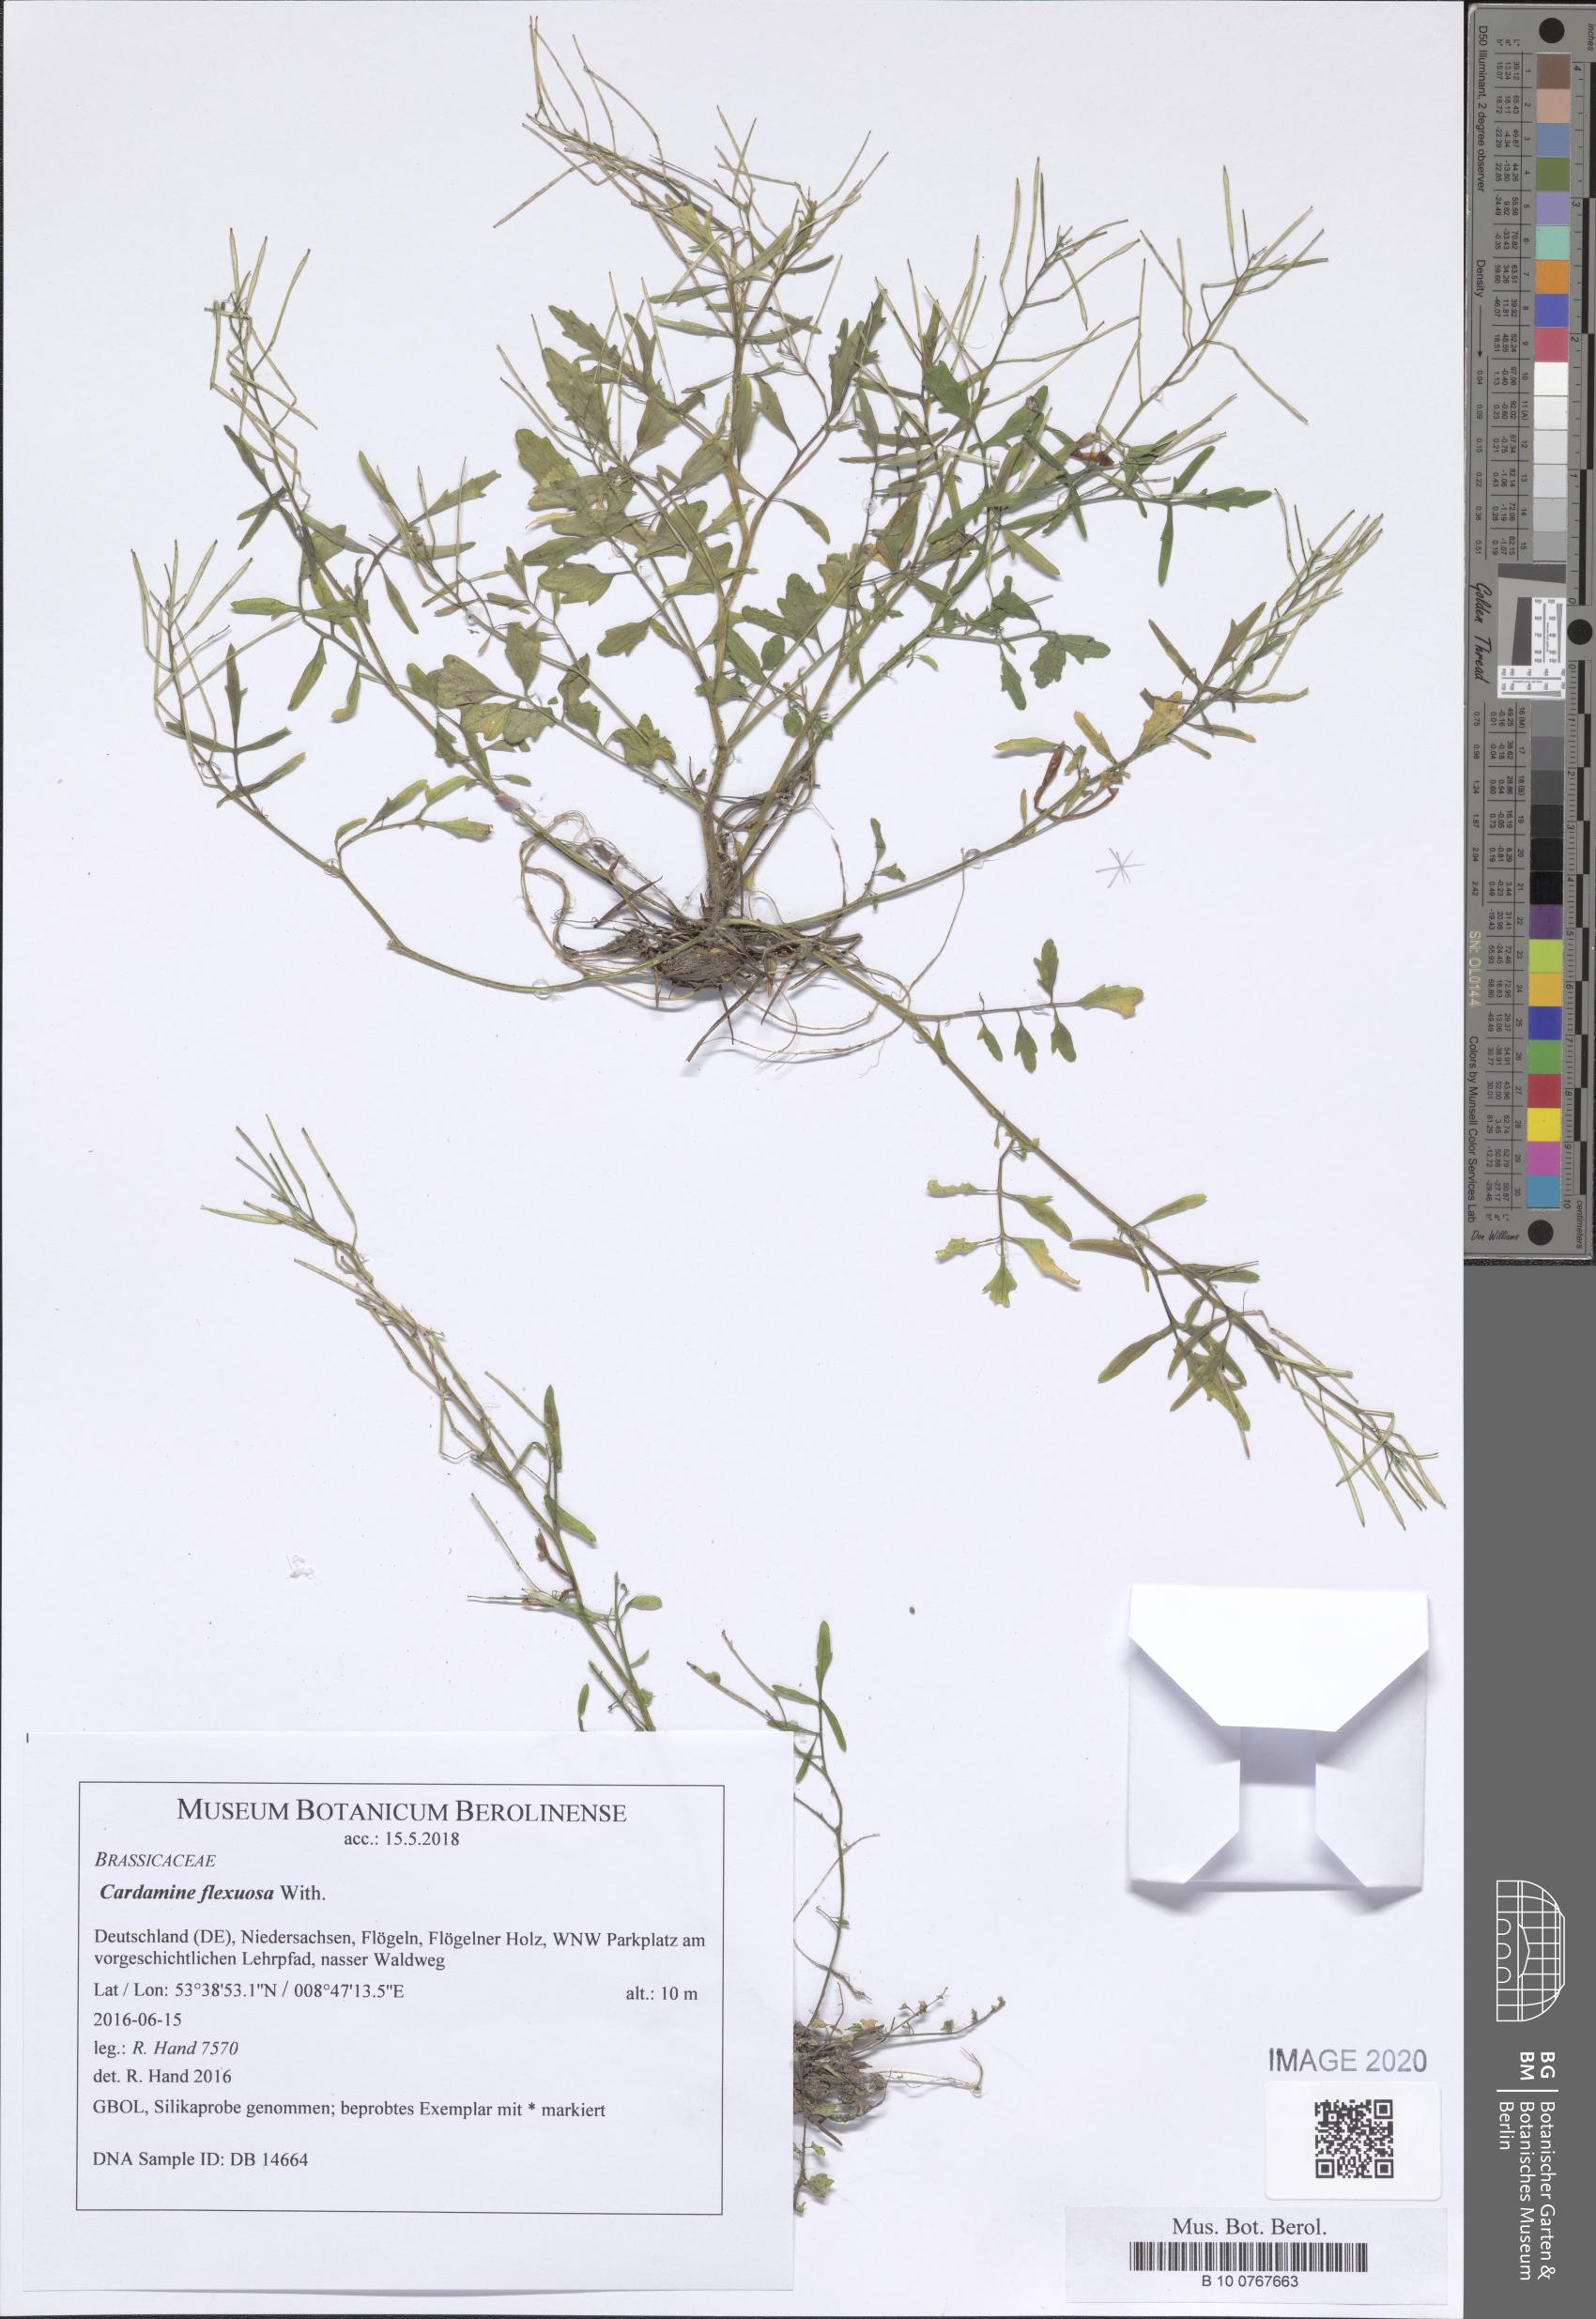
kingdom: Plantae
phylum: Tracheophyta
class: Magnoliopsida
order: Brassicales
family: Brassicaceae
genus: Cardamine
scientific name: Cardamine flexuosa
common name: Woodland bittercress
